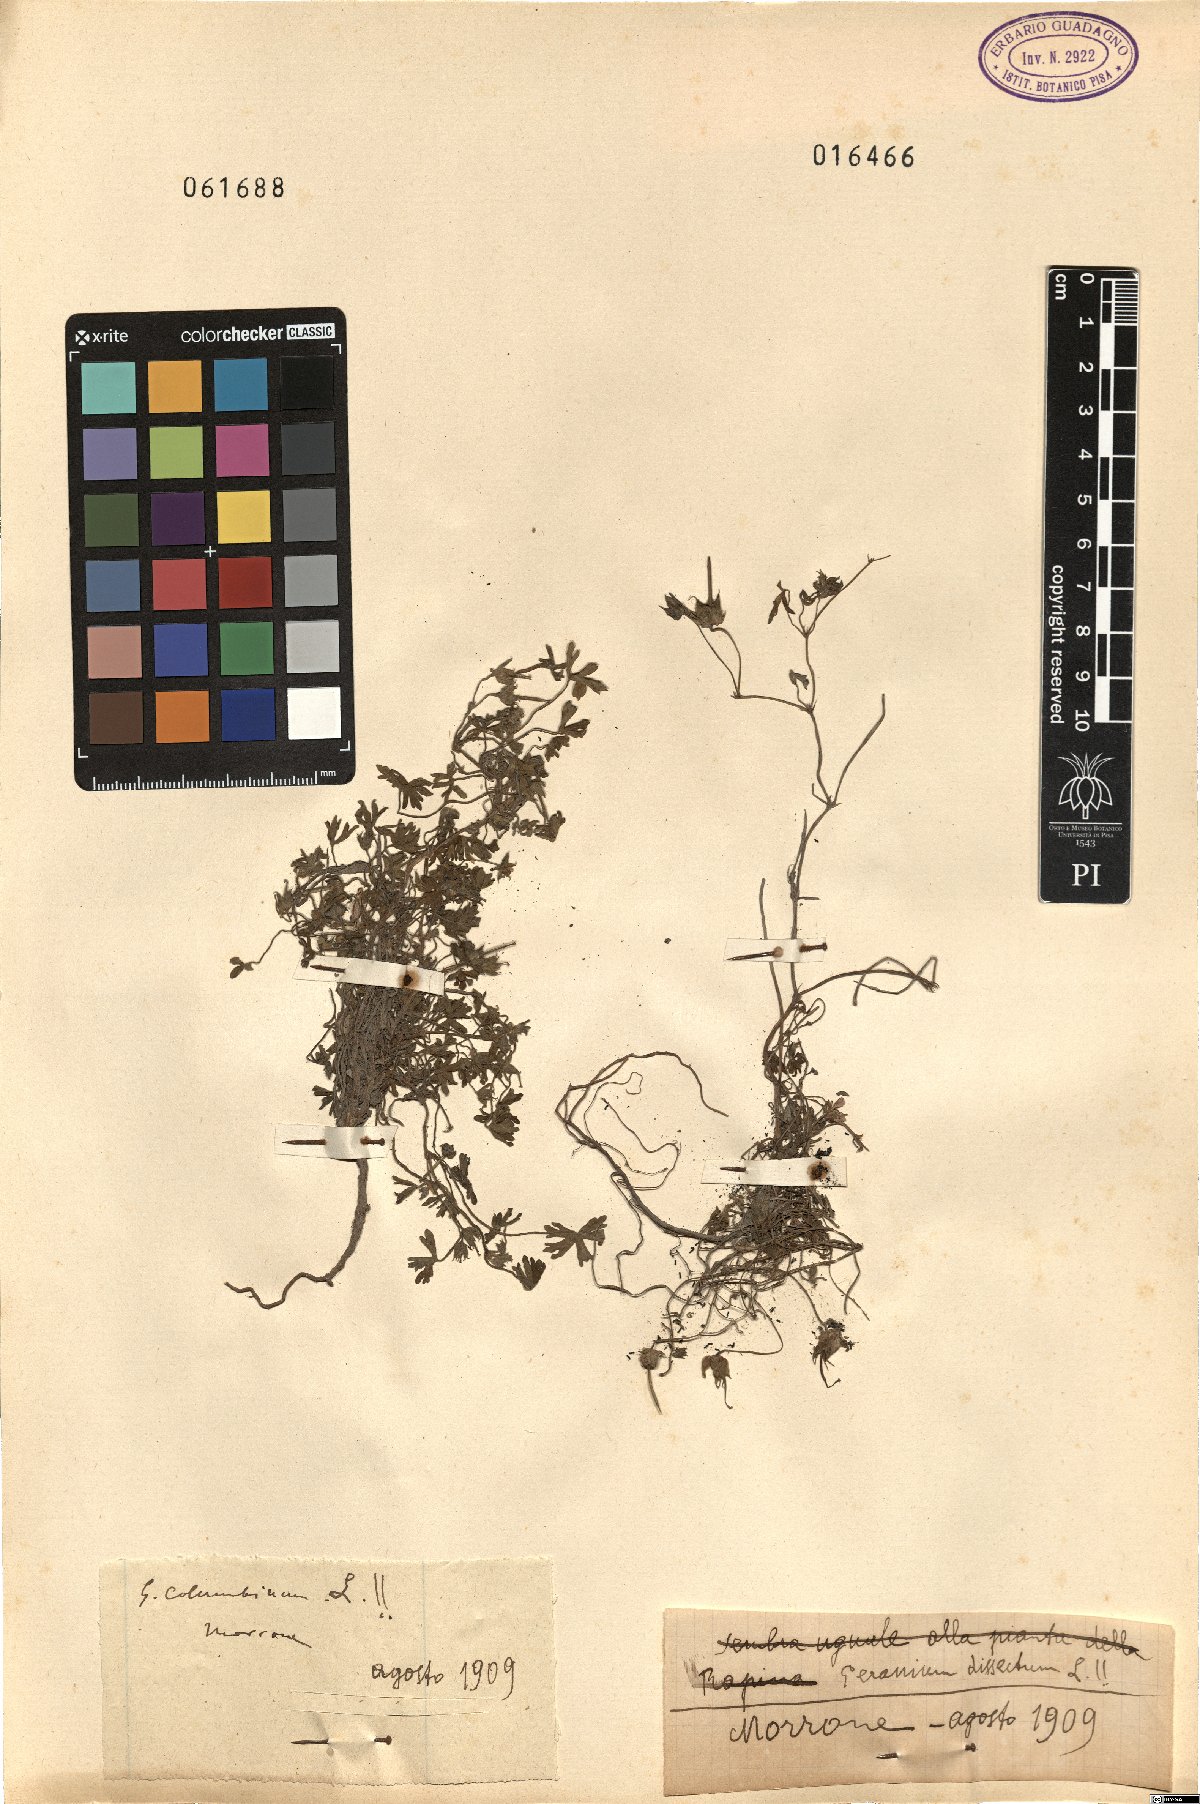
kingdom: Plantae
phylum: Tracheophyta
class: Magnoliopsida
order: Geraniales
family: Geraniaceae
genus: Geranium
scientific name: Geranium columbinum
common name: Long-stalked crane's-bill
